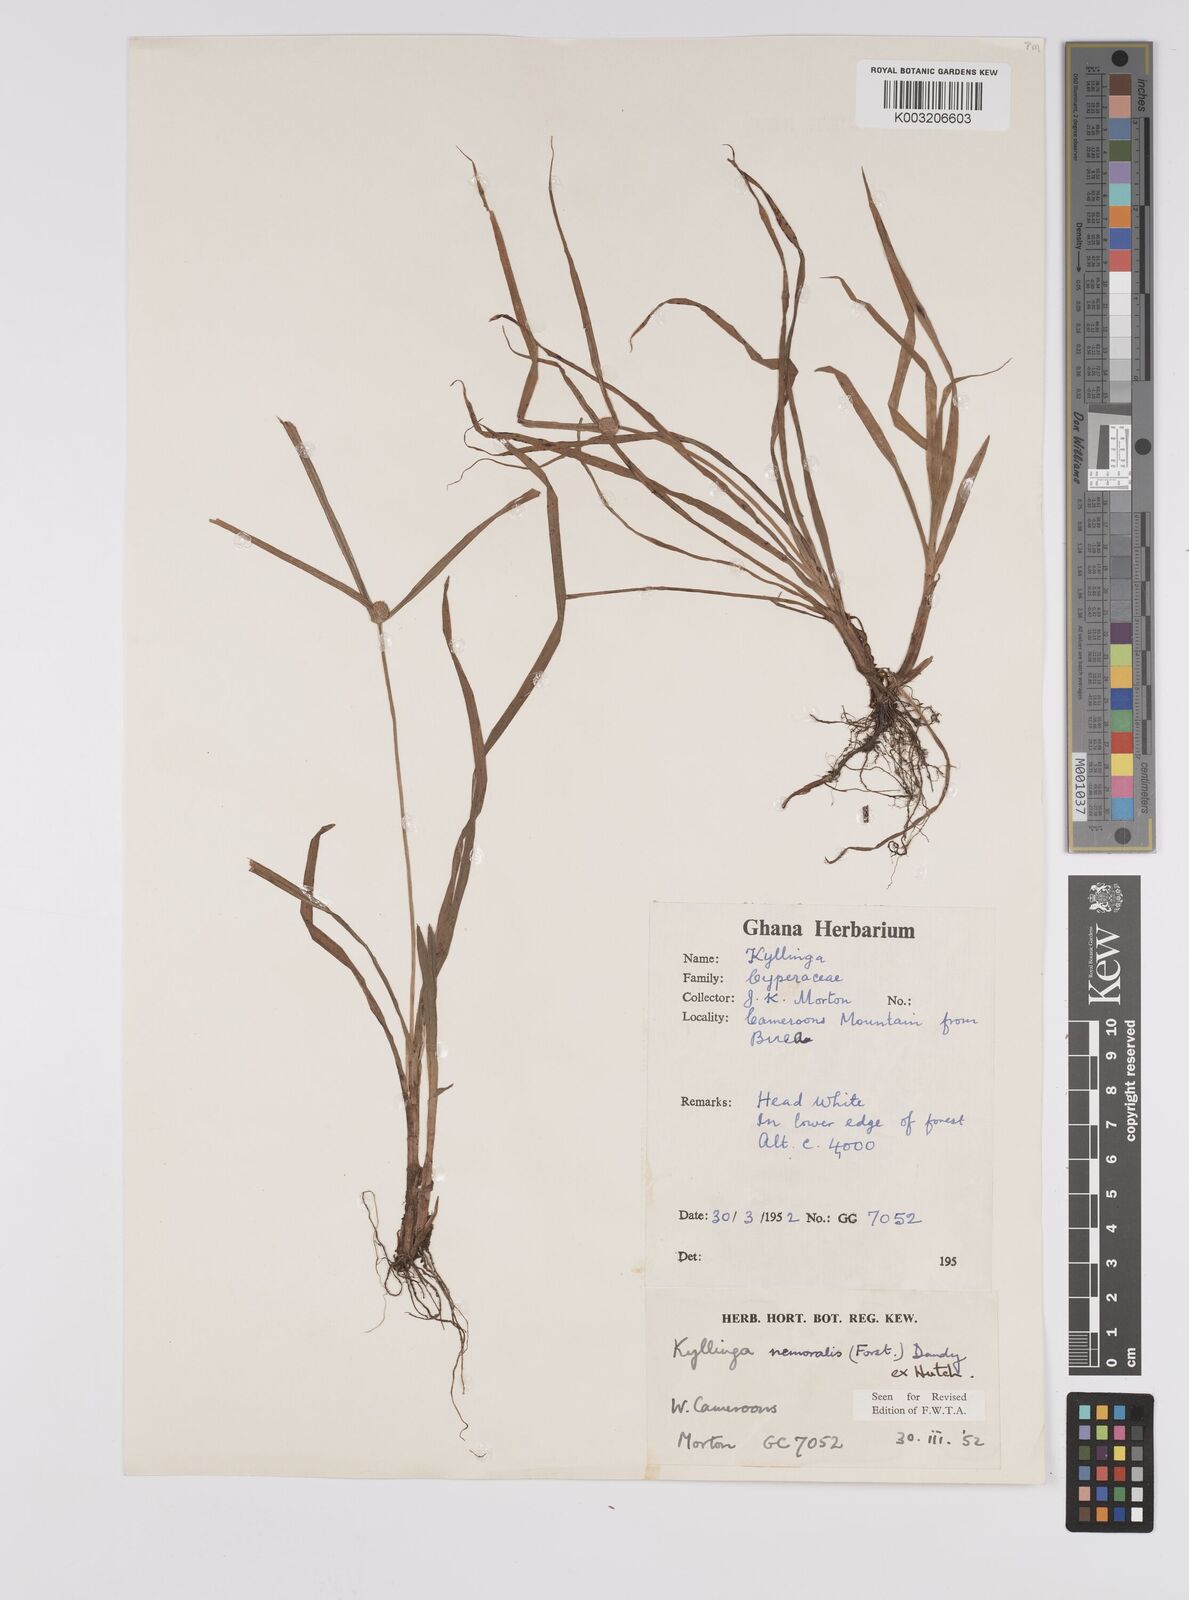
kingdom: Plantae
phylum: Tracheophyta
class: Liliopsida
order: Poales
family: Cyperaceae
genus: Cyperus
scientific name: Cyperus nemoralis
